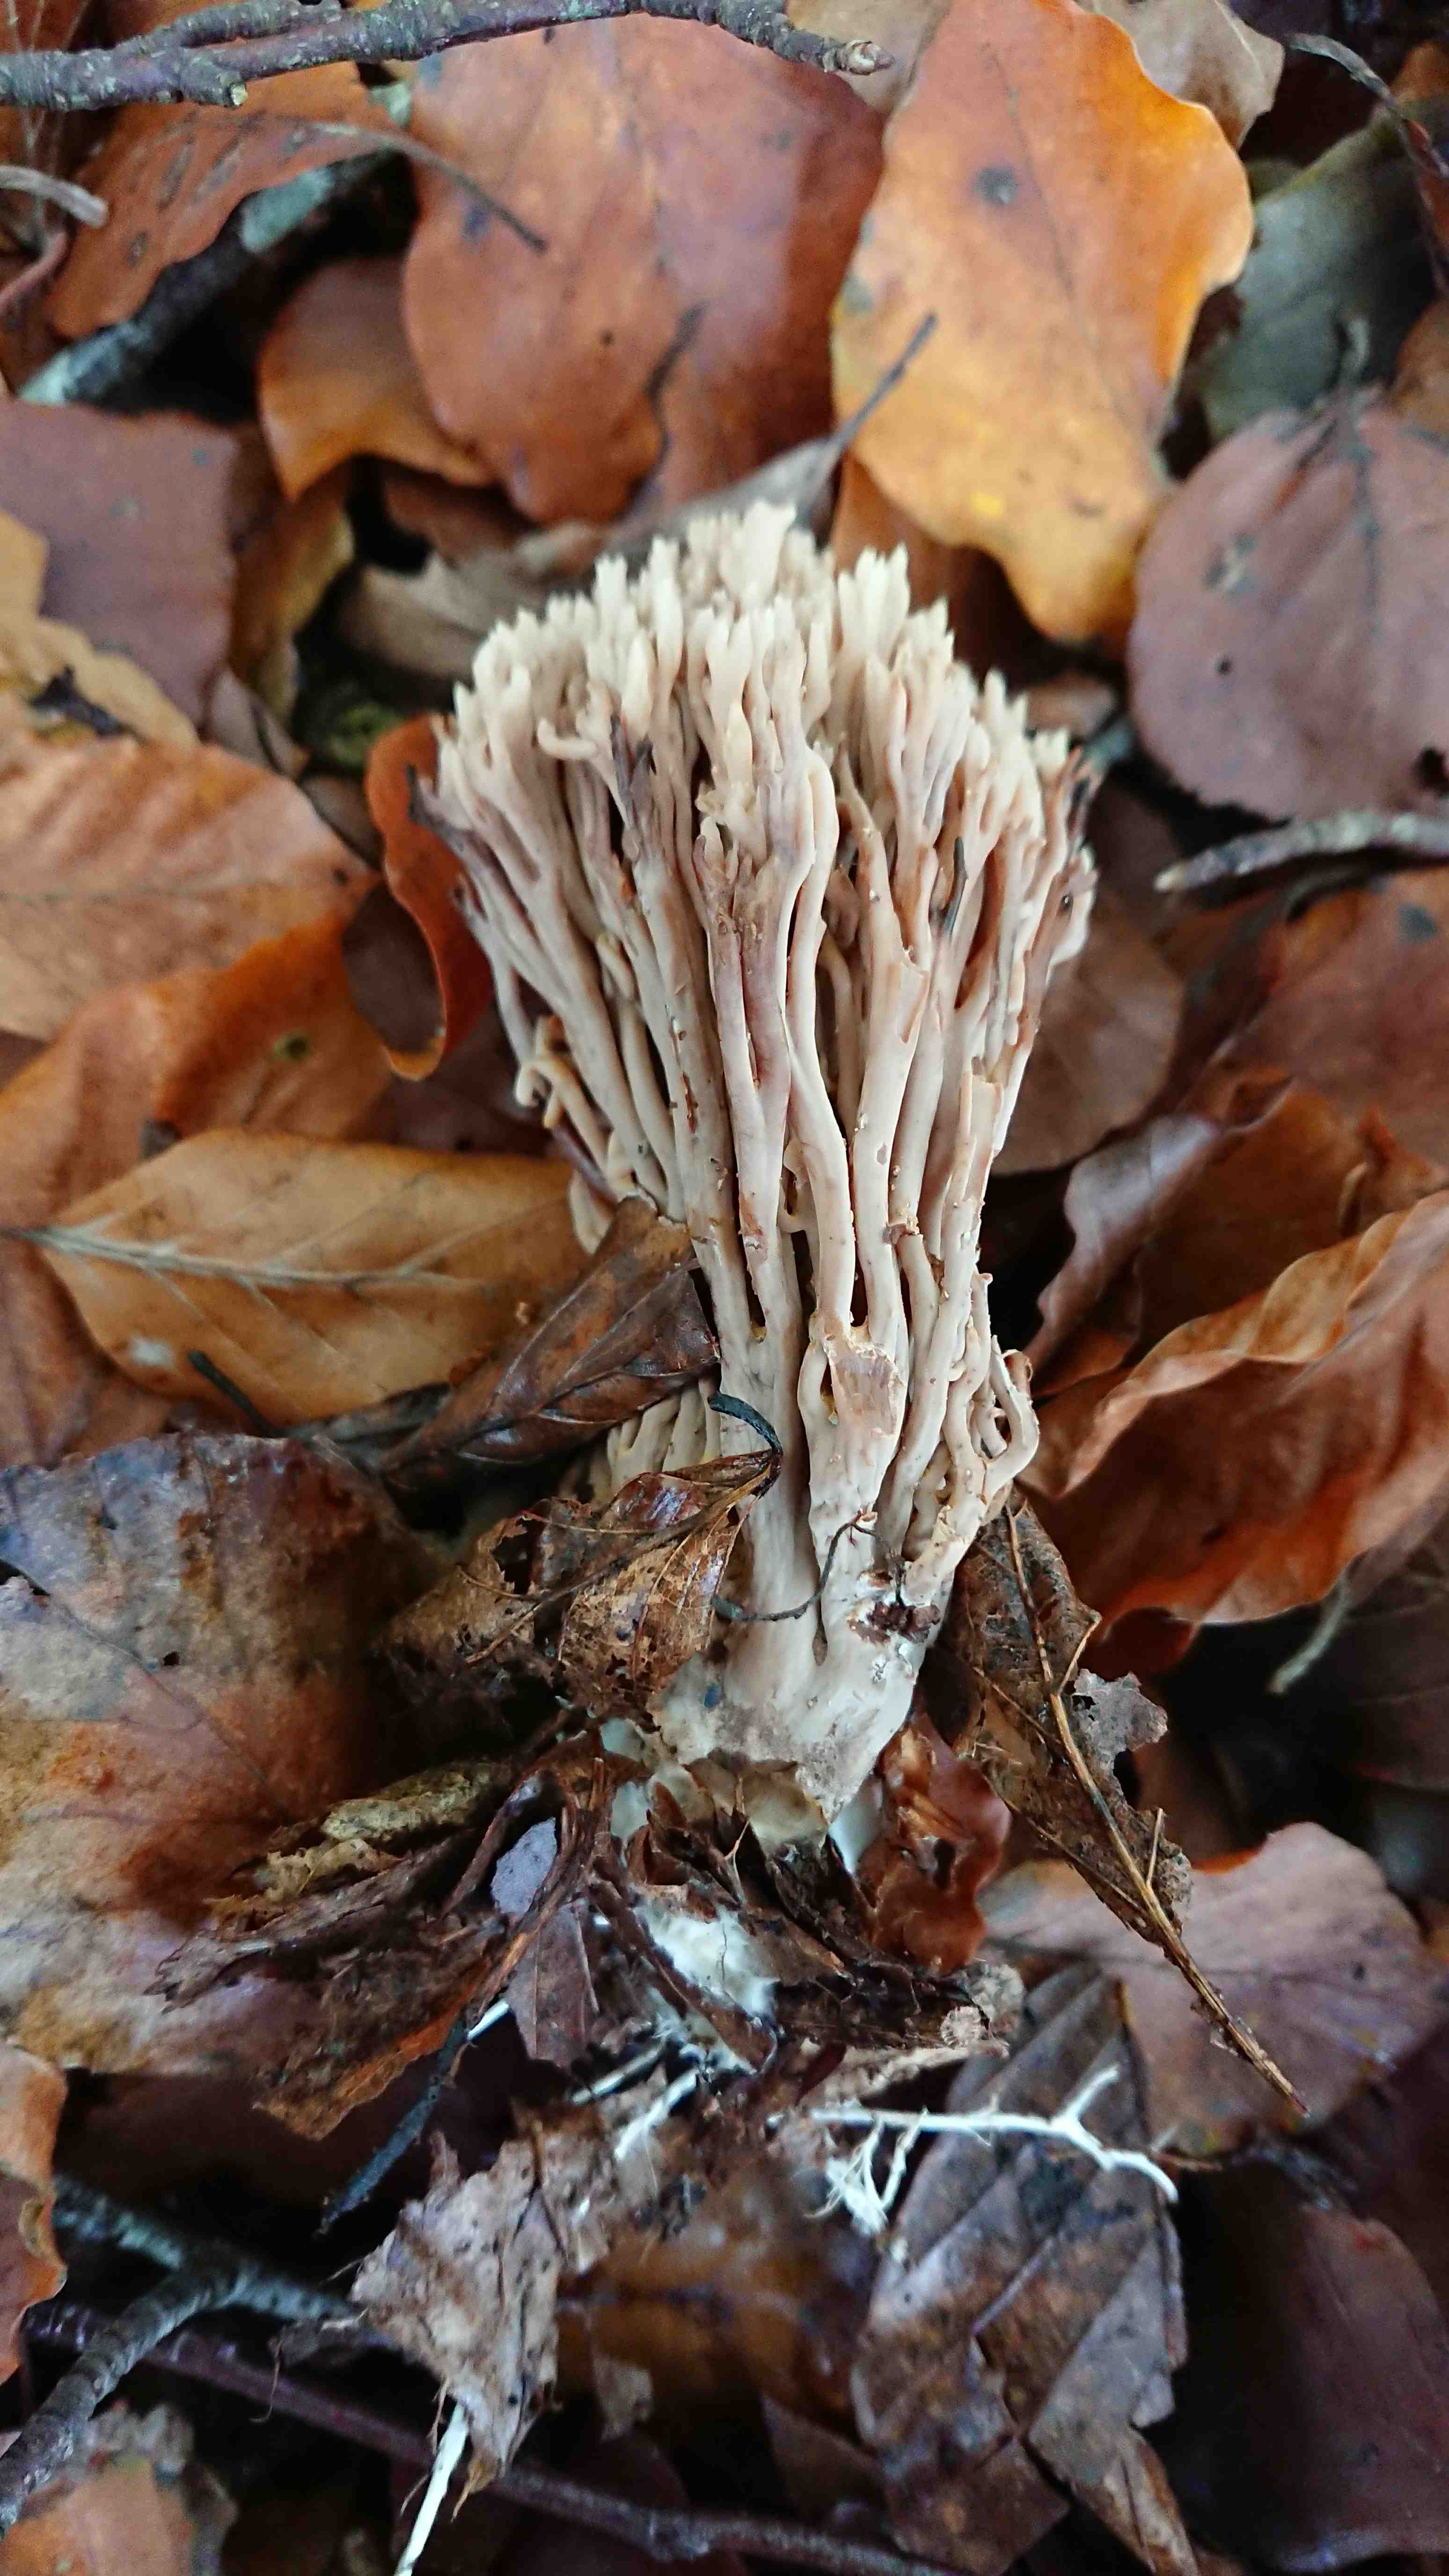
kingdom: Fungi
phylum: Basidiomycota
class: Agaricomycetes
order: Gomphales
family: Gomphaceae
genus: Ramaria
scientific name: Ramaria stricta
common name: rank koralsvamp
